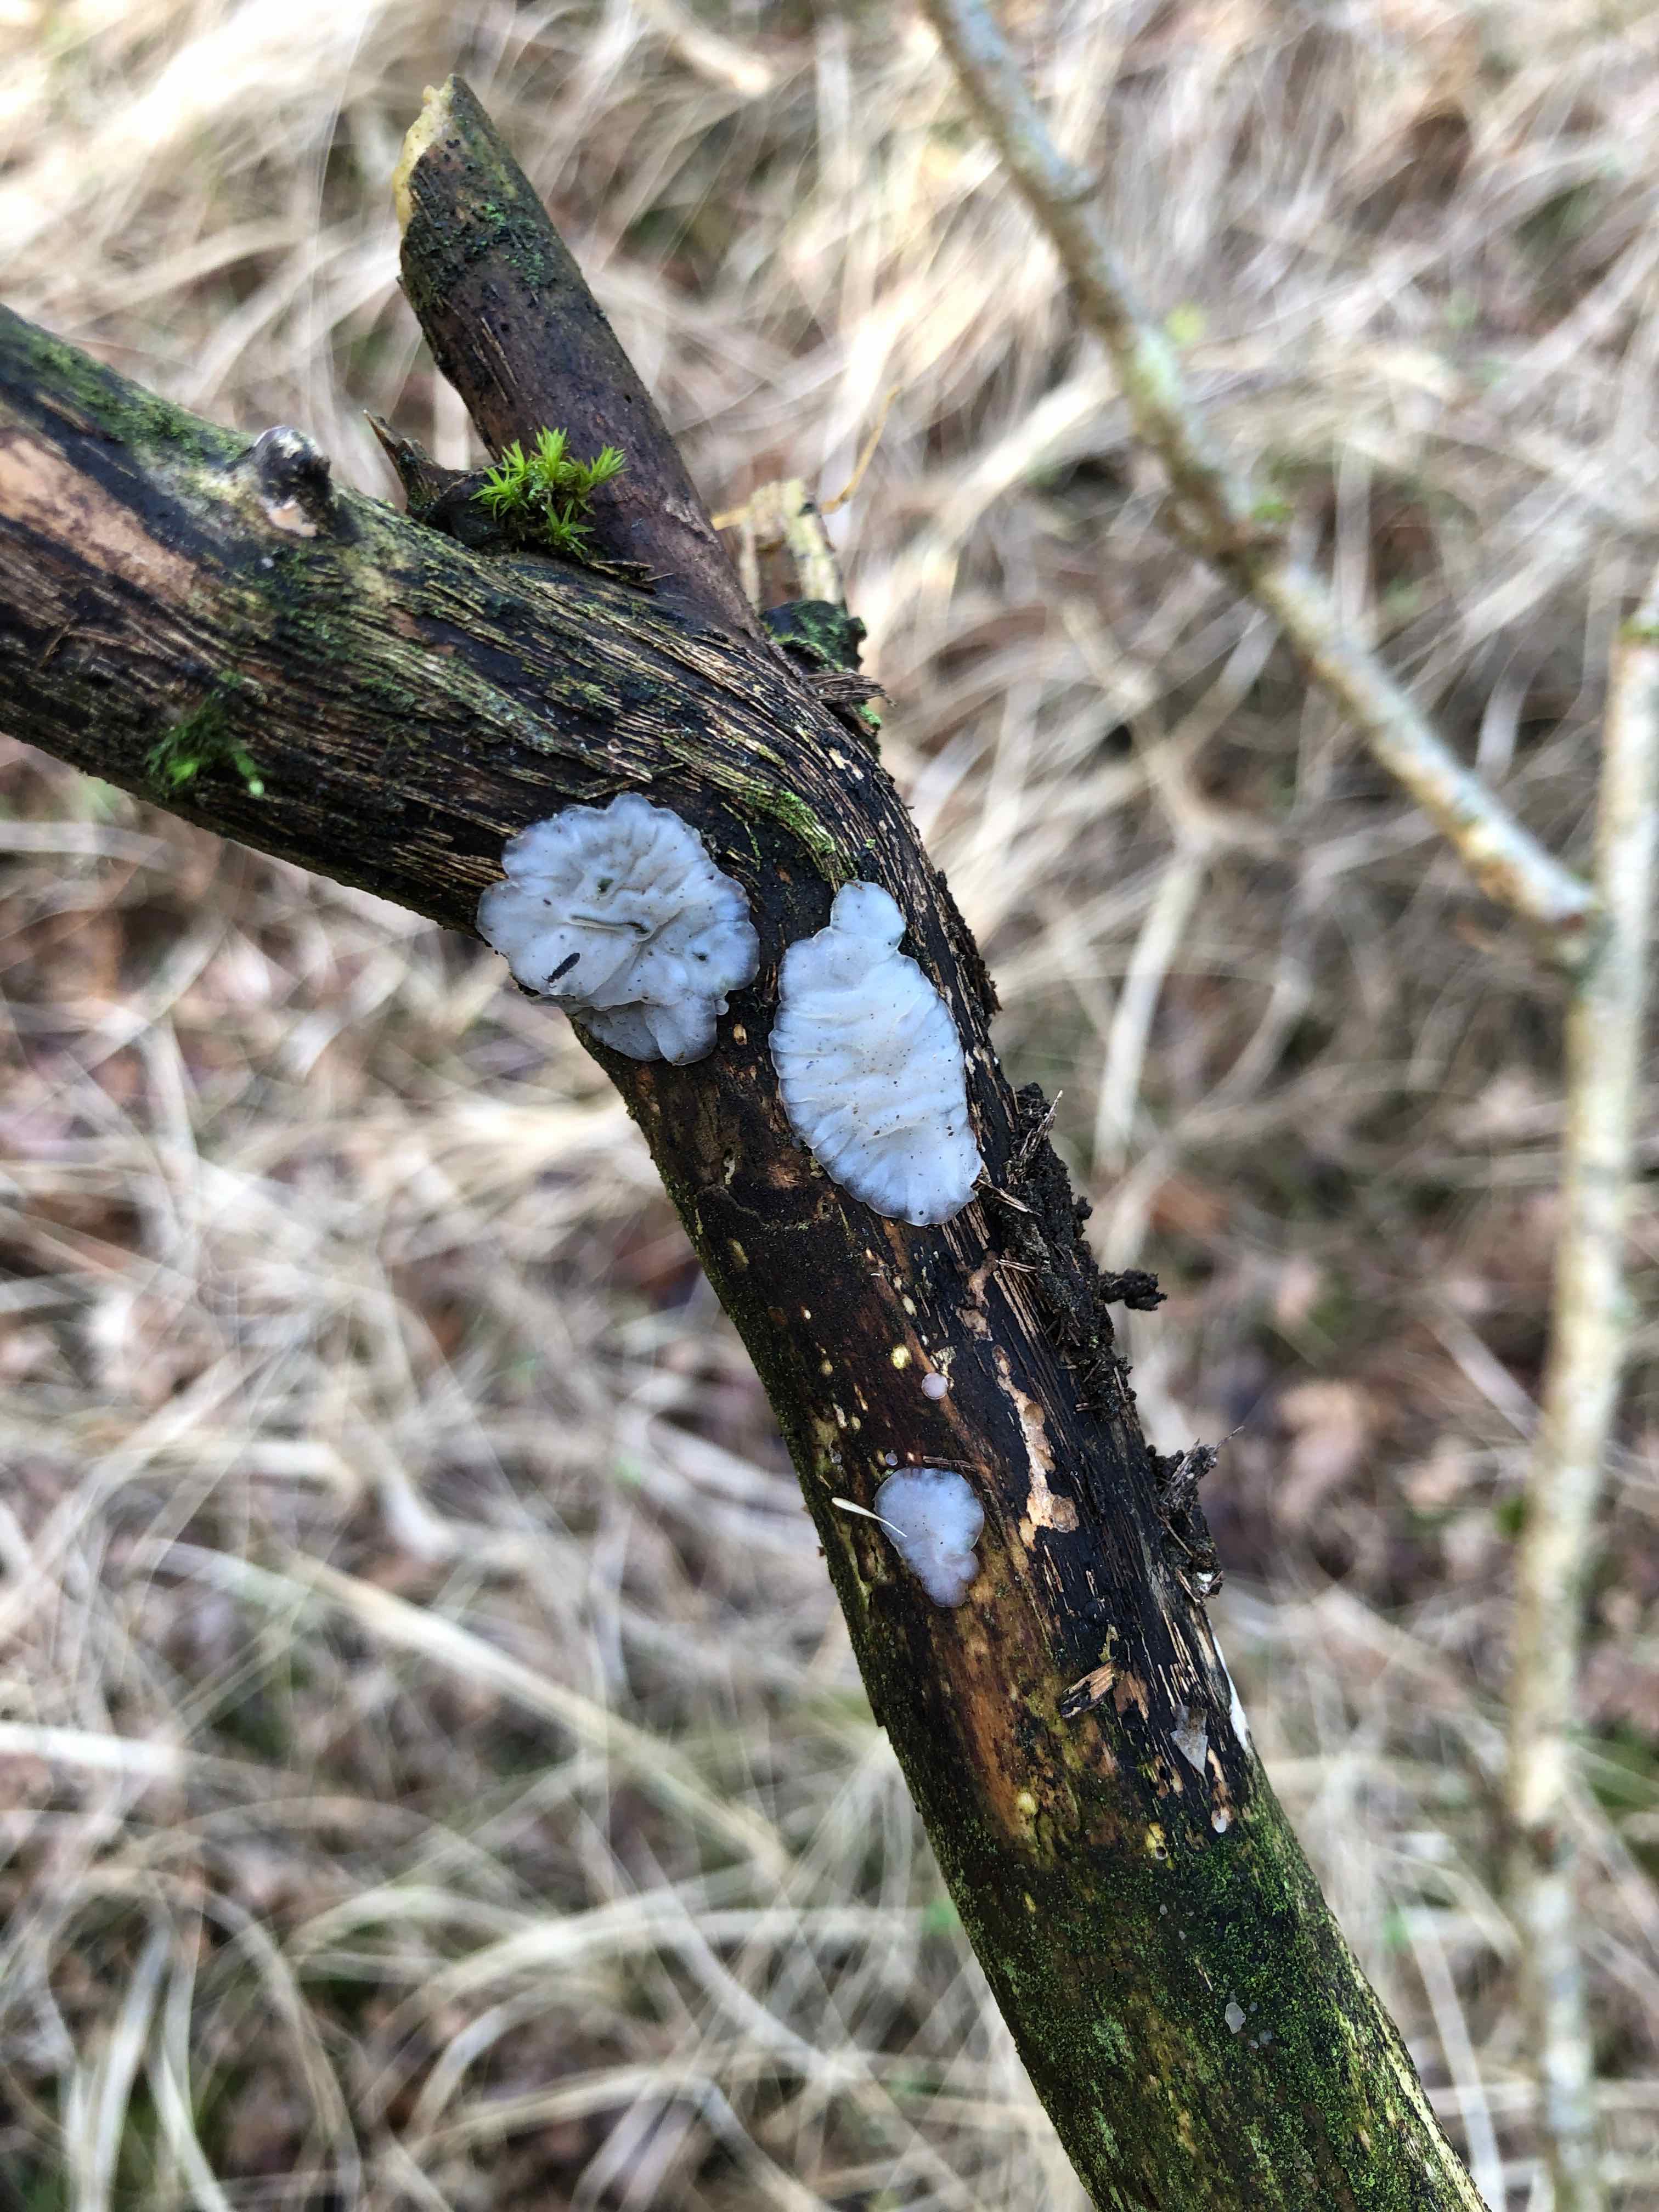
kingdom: Fungi
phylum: Basidiomycota
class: Agaricomycetes
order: Auriculariales
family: Auriculariaceae
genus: Exidia
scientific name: Exidia thuretiana
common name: hvidlig bævretop
